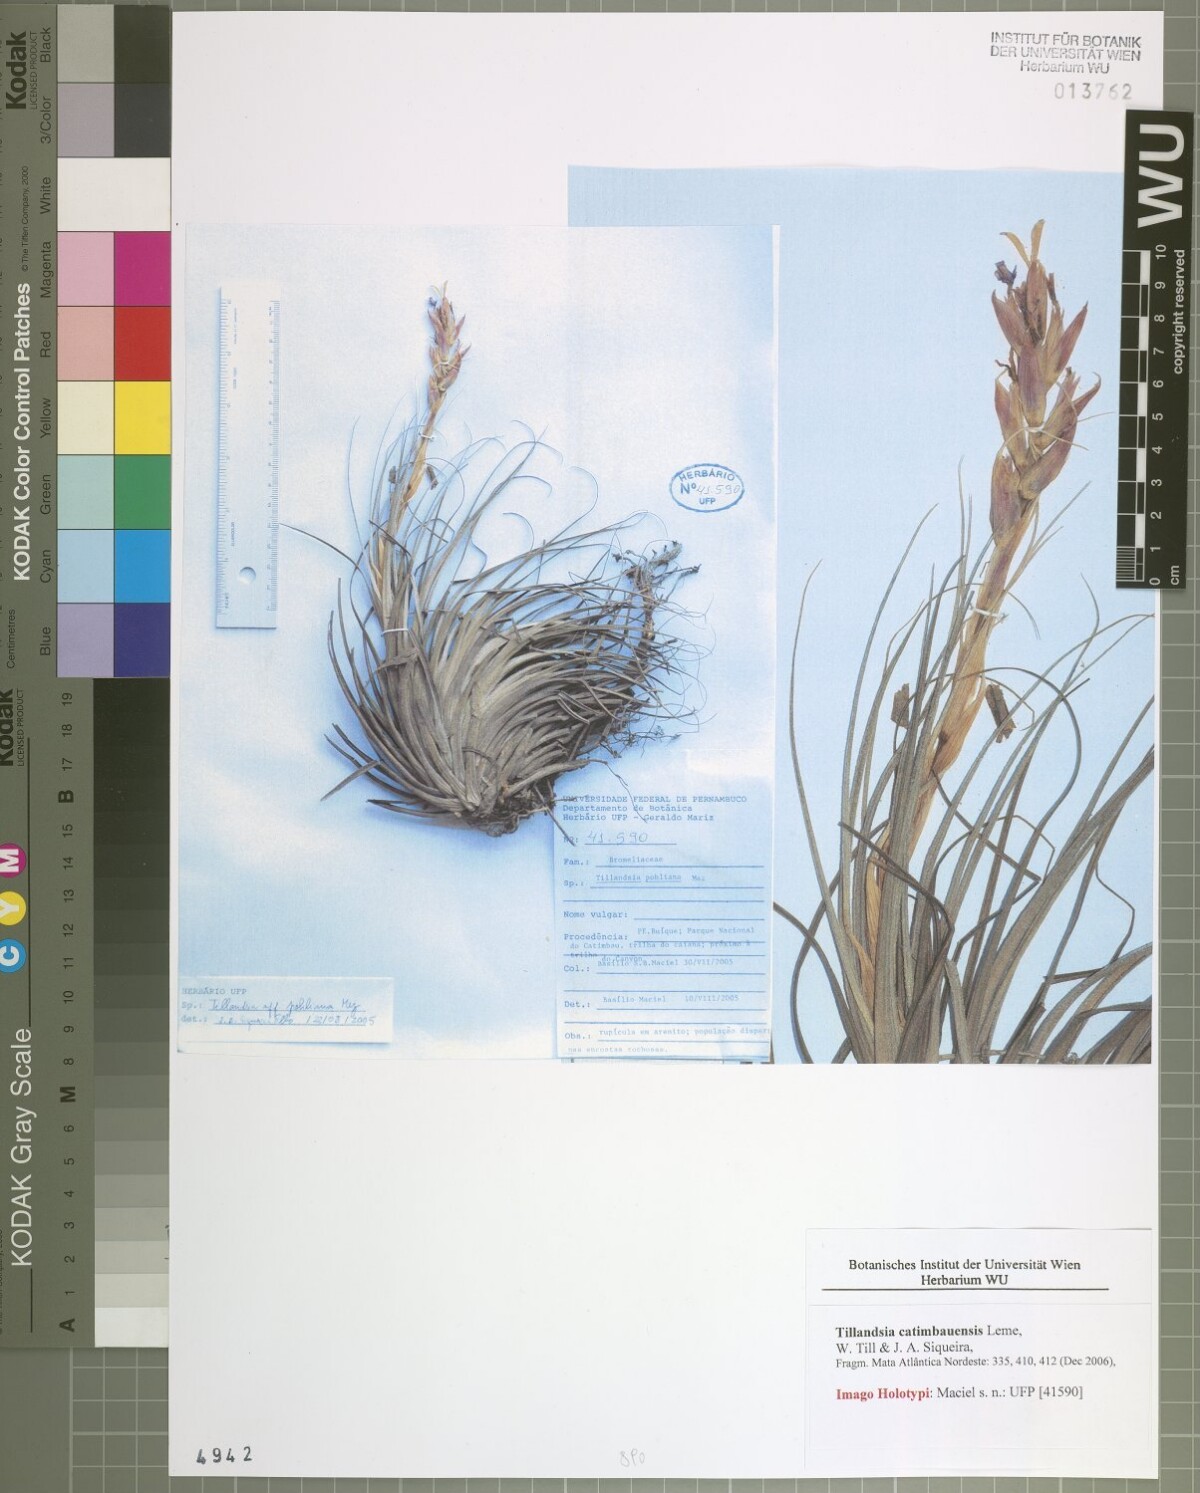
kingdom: Plantae
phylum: Tracheophyta
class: Liliopsida
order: Poales
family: Bromeliaceae
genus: Tillandsia
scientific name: Tillandsia catimbauensis
